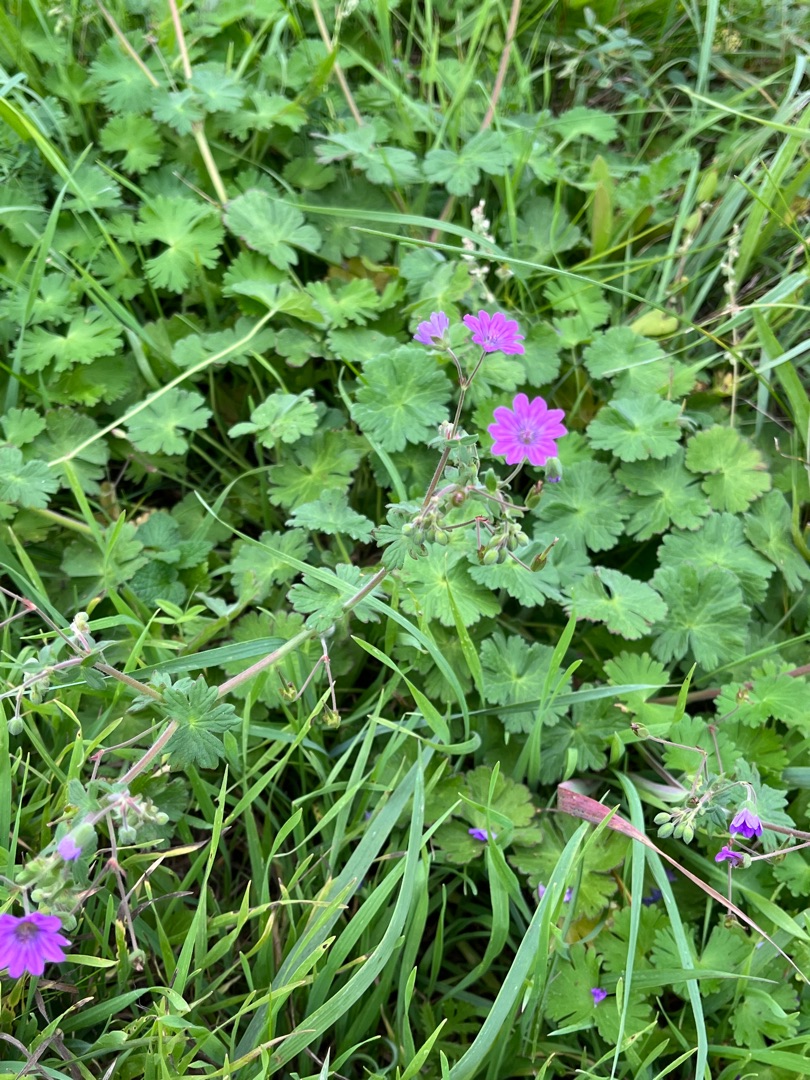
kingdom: Plantae
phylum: Tracheophyta
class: Magnoliopsida
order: Geraniales
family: Geraniaceae
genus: Geranium
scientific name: Geranium pyrenaicum
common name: Pyrenæisk storkenæb
